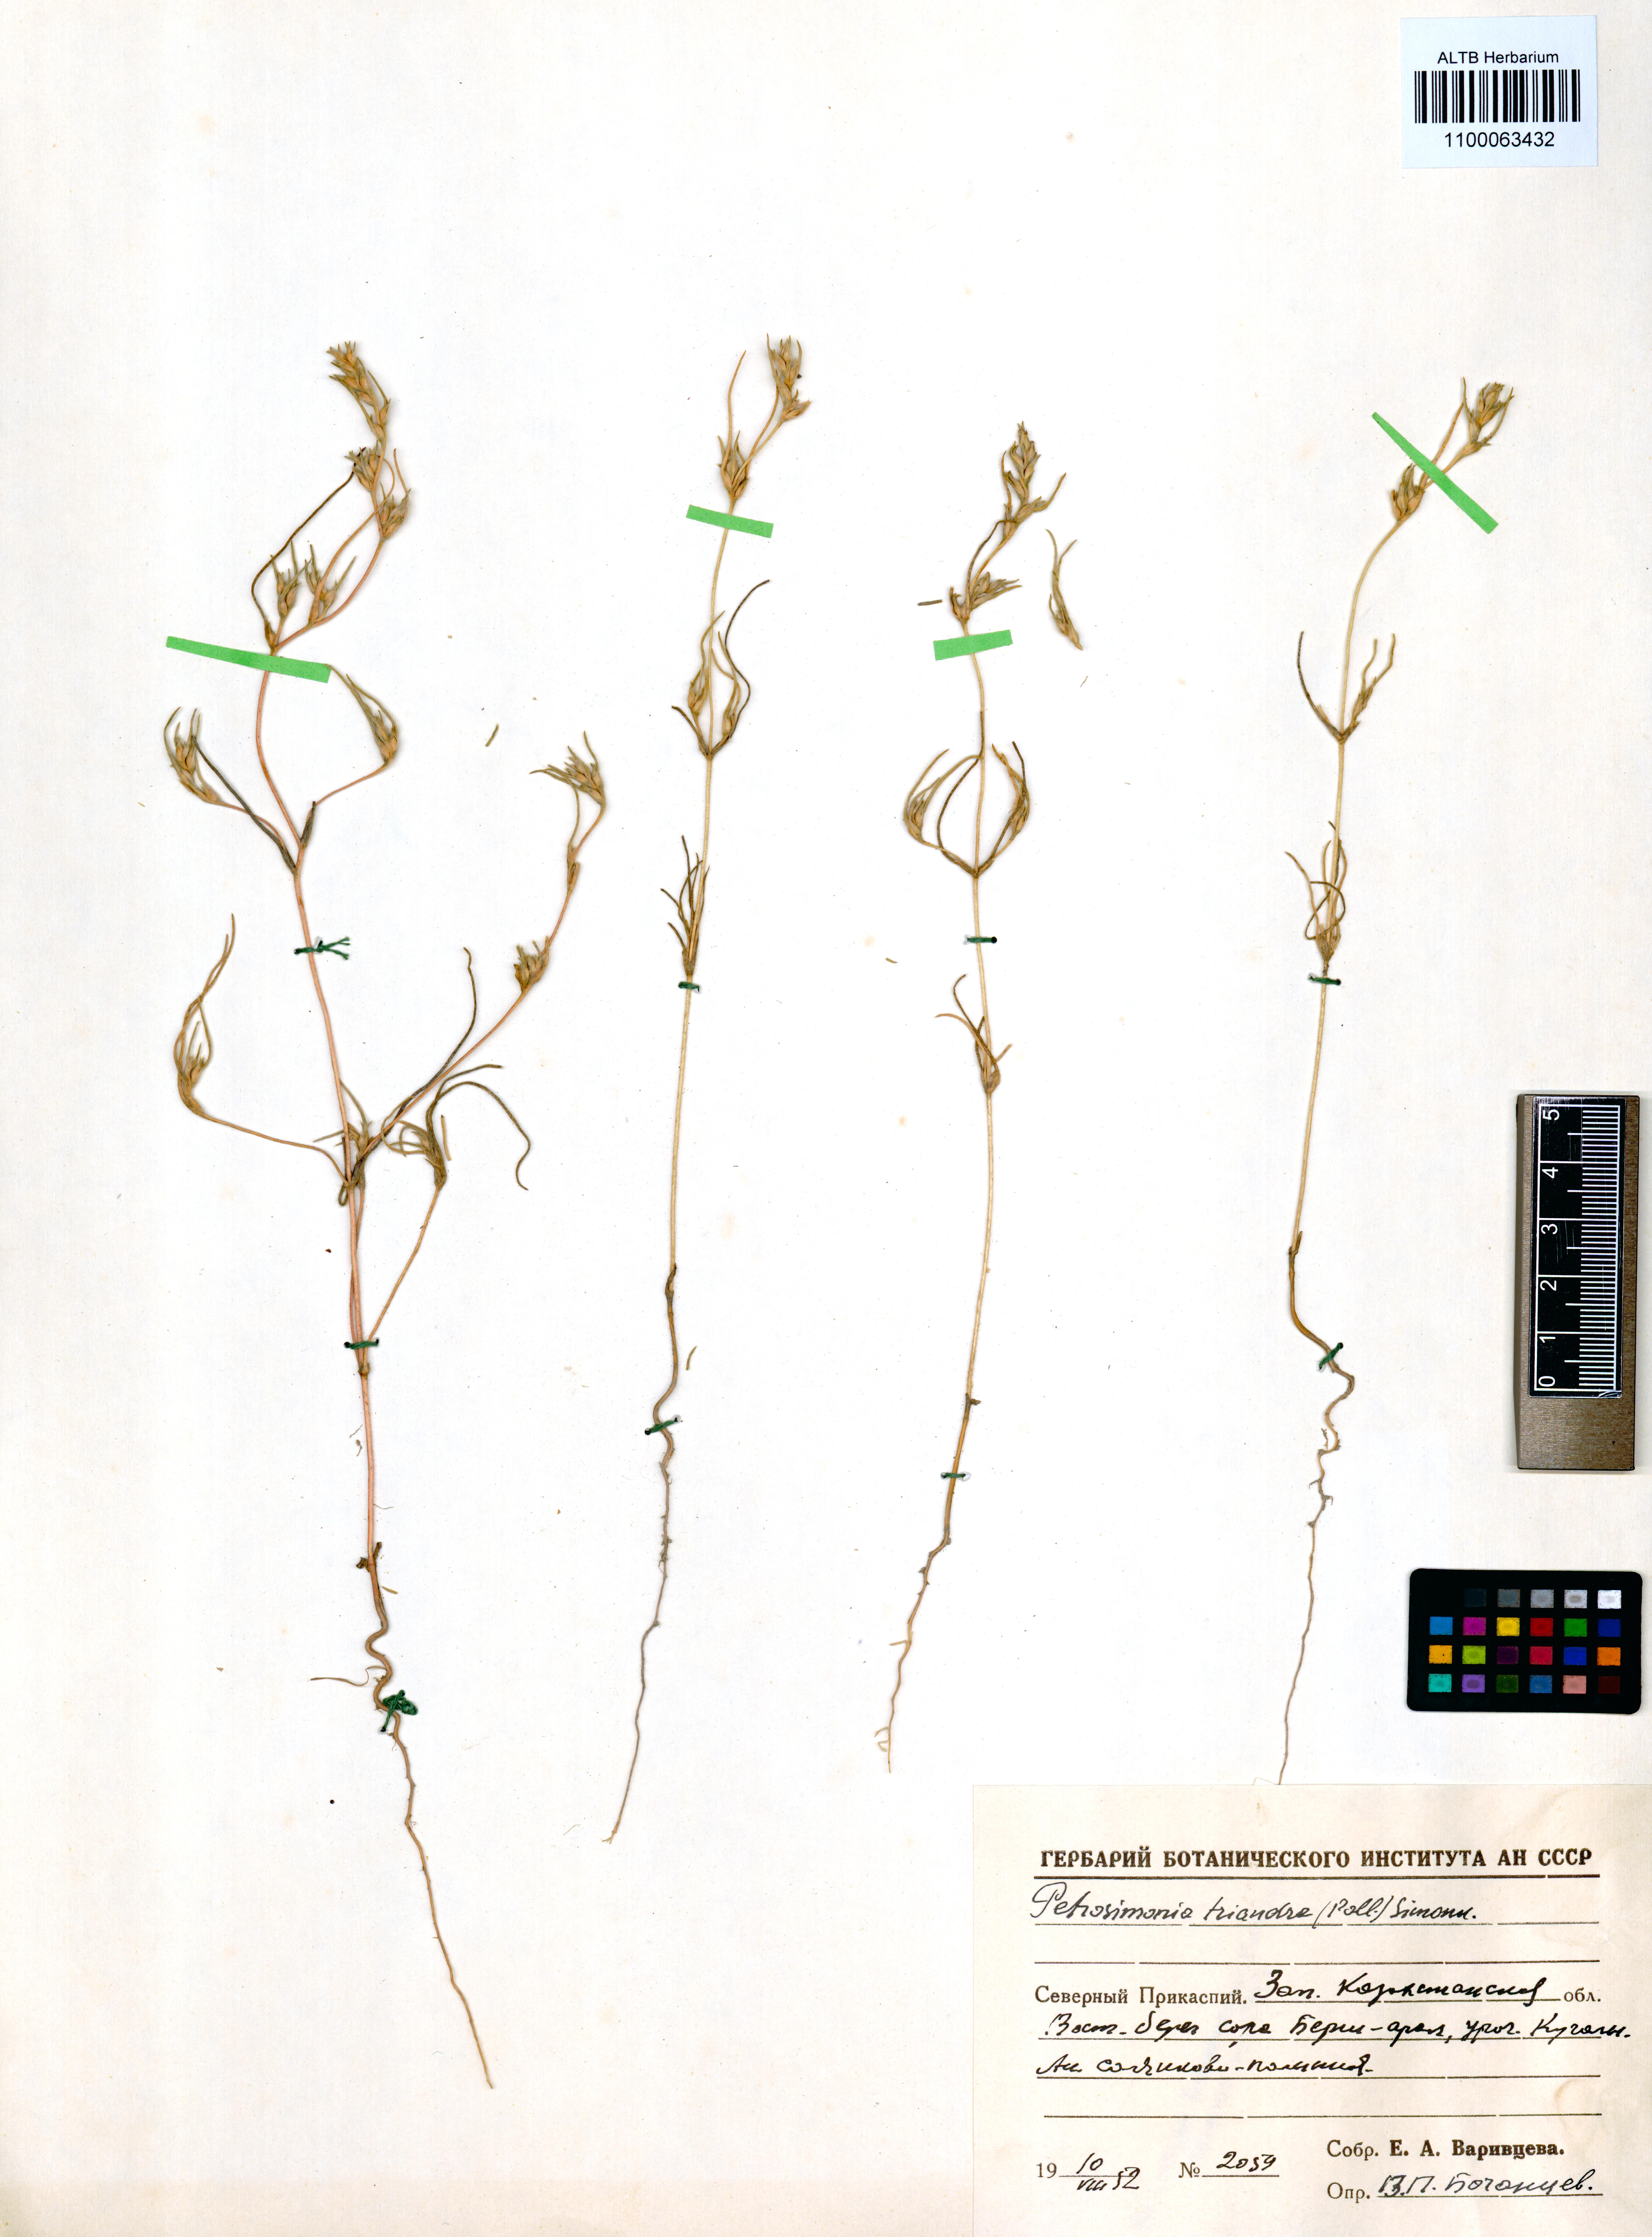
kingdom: Plantae
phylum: Tracheophyta
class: Magnoliopsida
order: Caryophyllales
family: Amaranthaceae
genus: Petrosimonia
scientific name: Petrosimonia triandra
